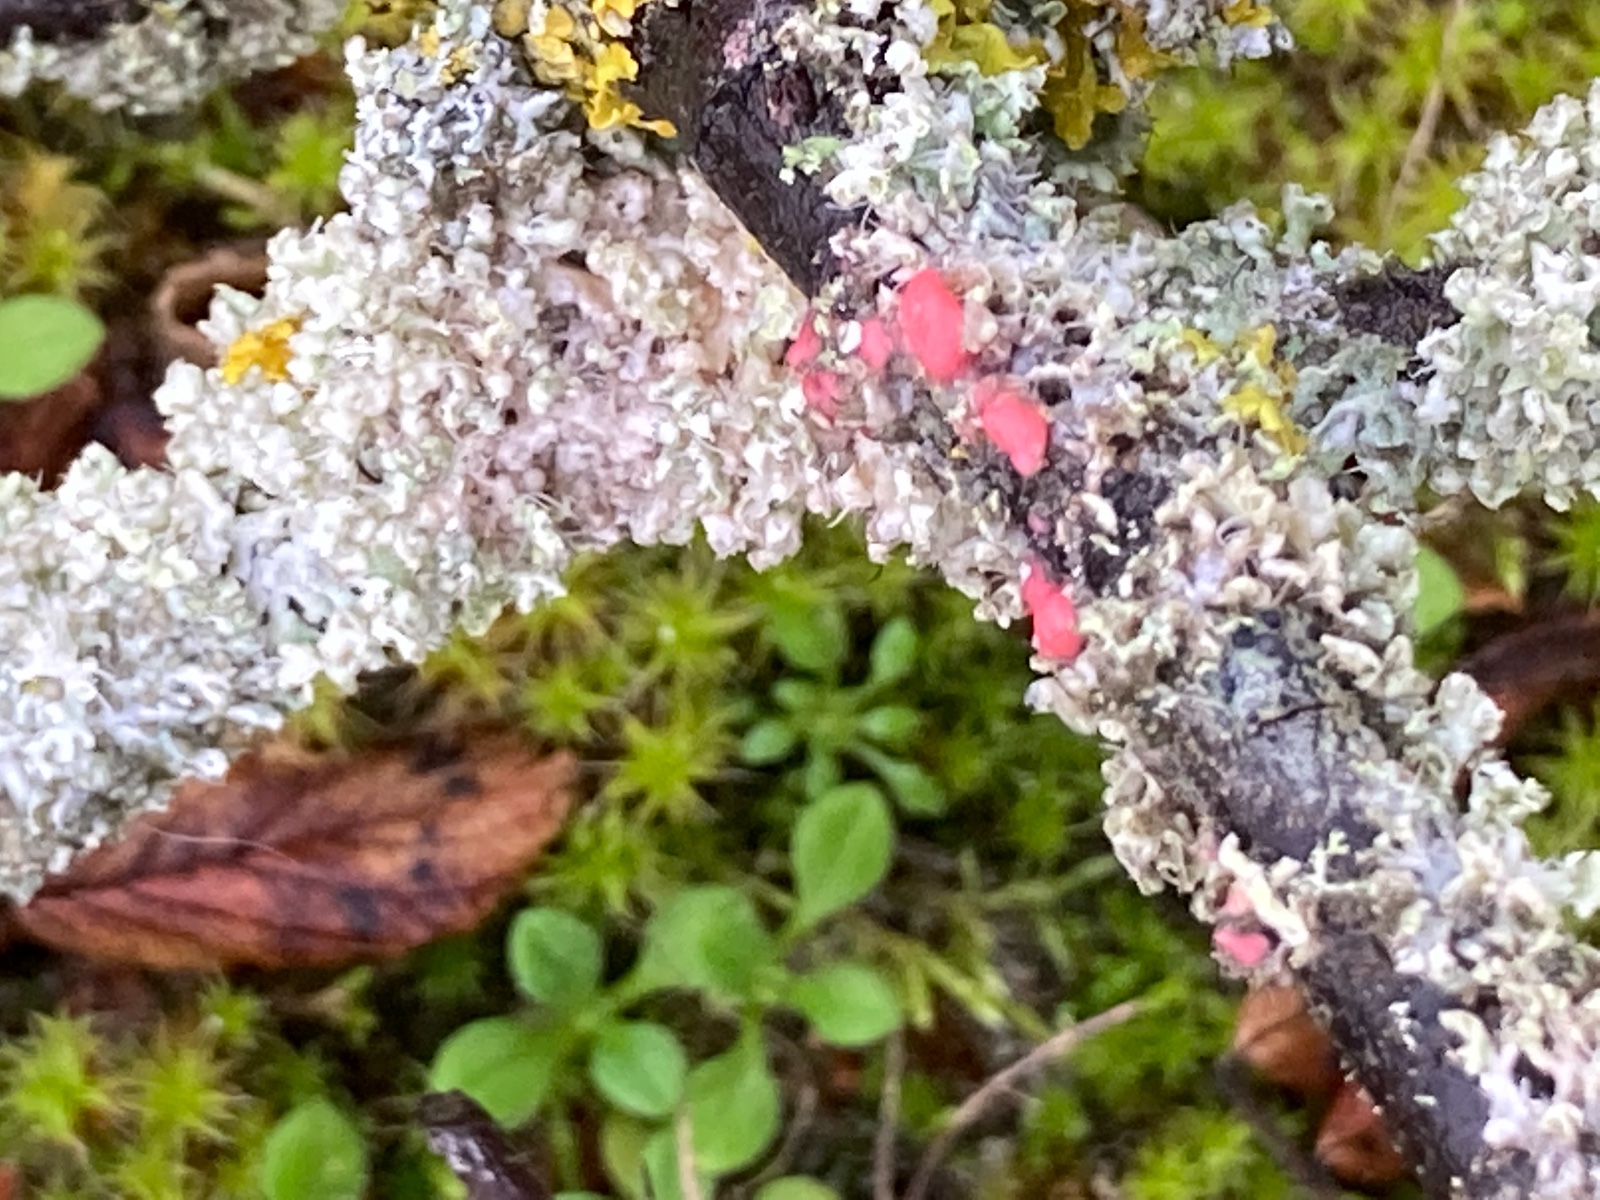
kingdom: Fungi
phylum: Ascomycota
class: Sordariomycetes
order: Hypocreales
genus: Illosporiopsis
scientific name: Illosporiopsis christiansenii
